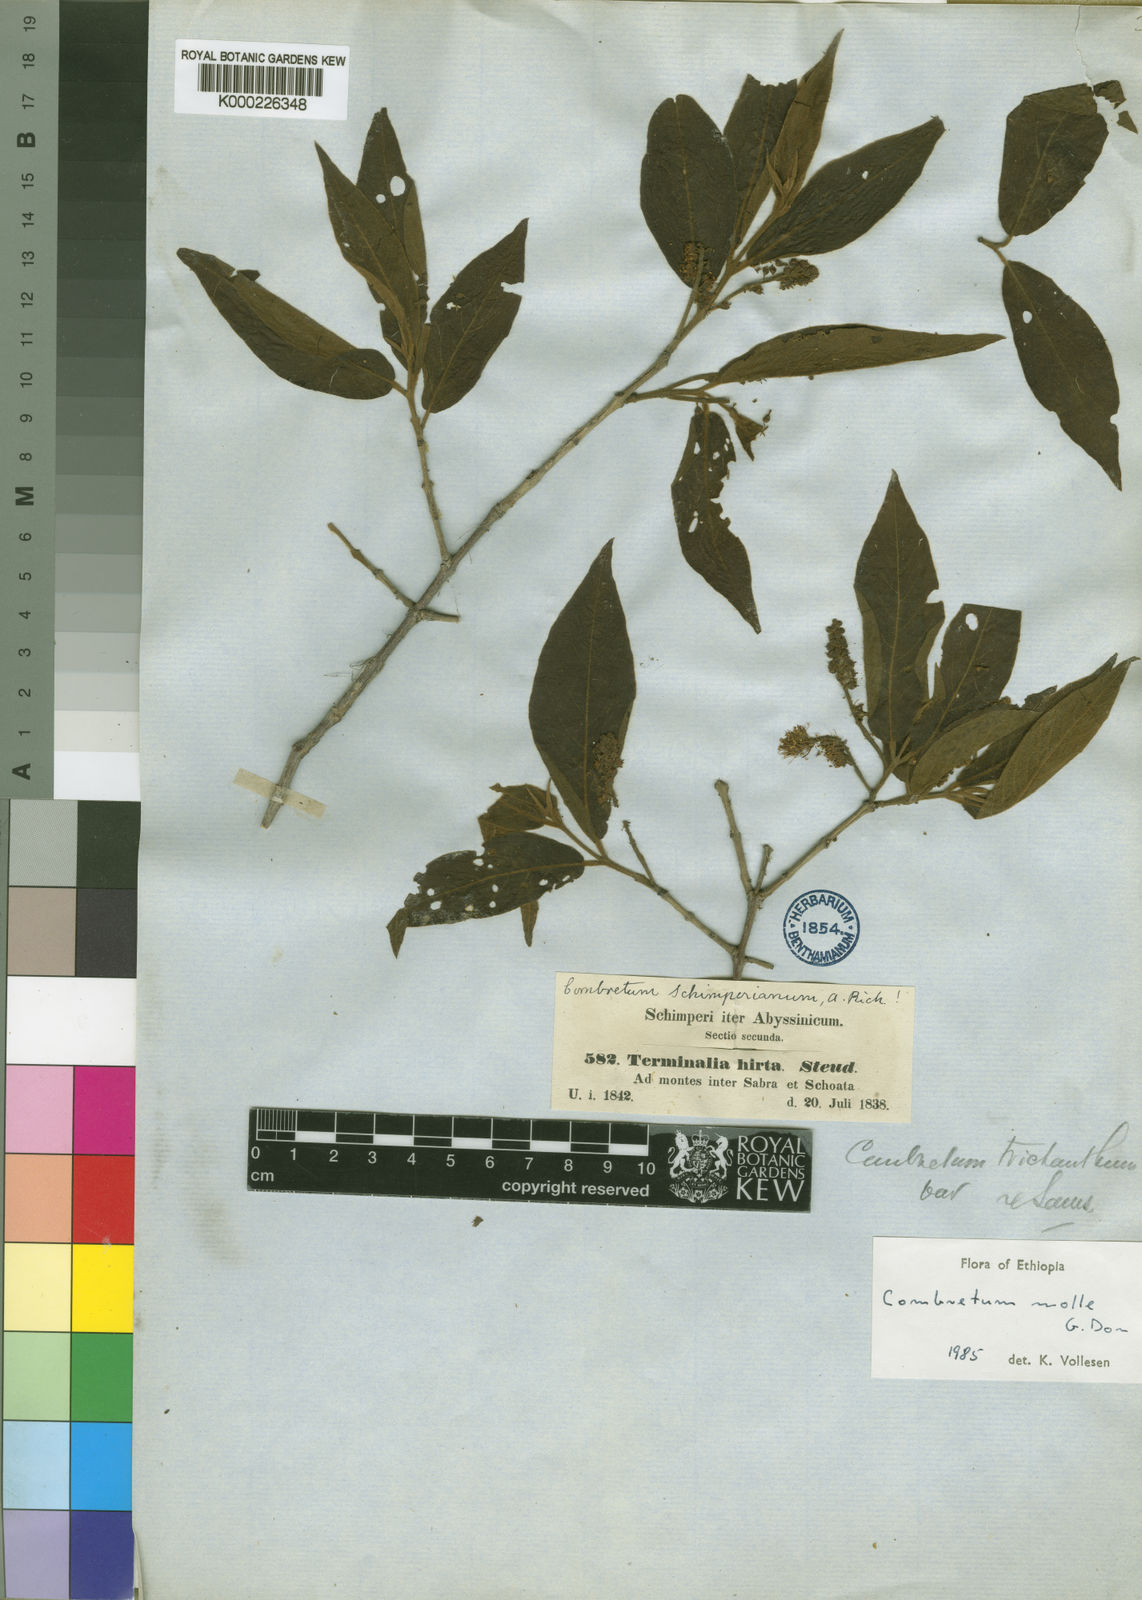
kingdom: Plantae
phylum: Tracheophyta
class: Magnoliopsida
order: Myrtales
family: Combretaceae
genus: Combretum
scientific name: Combretum molle
